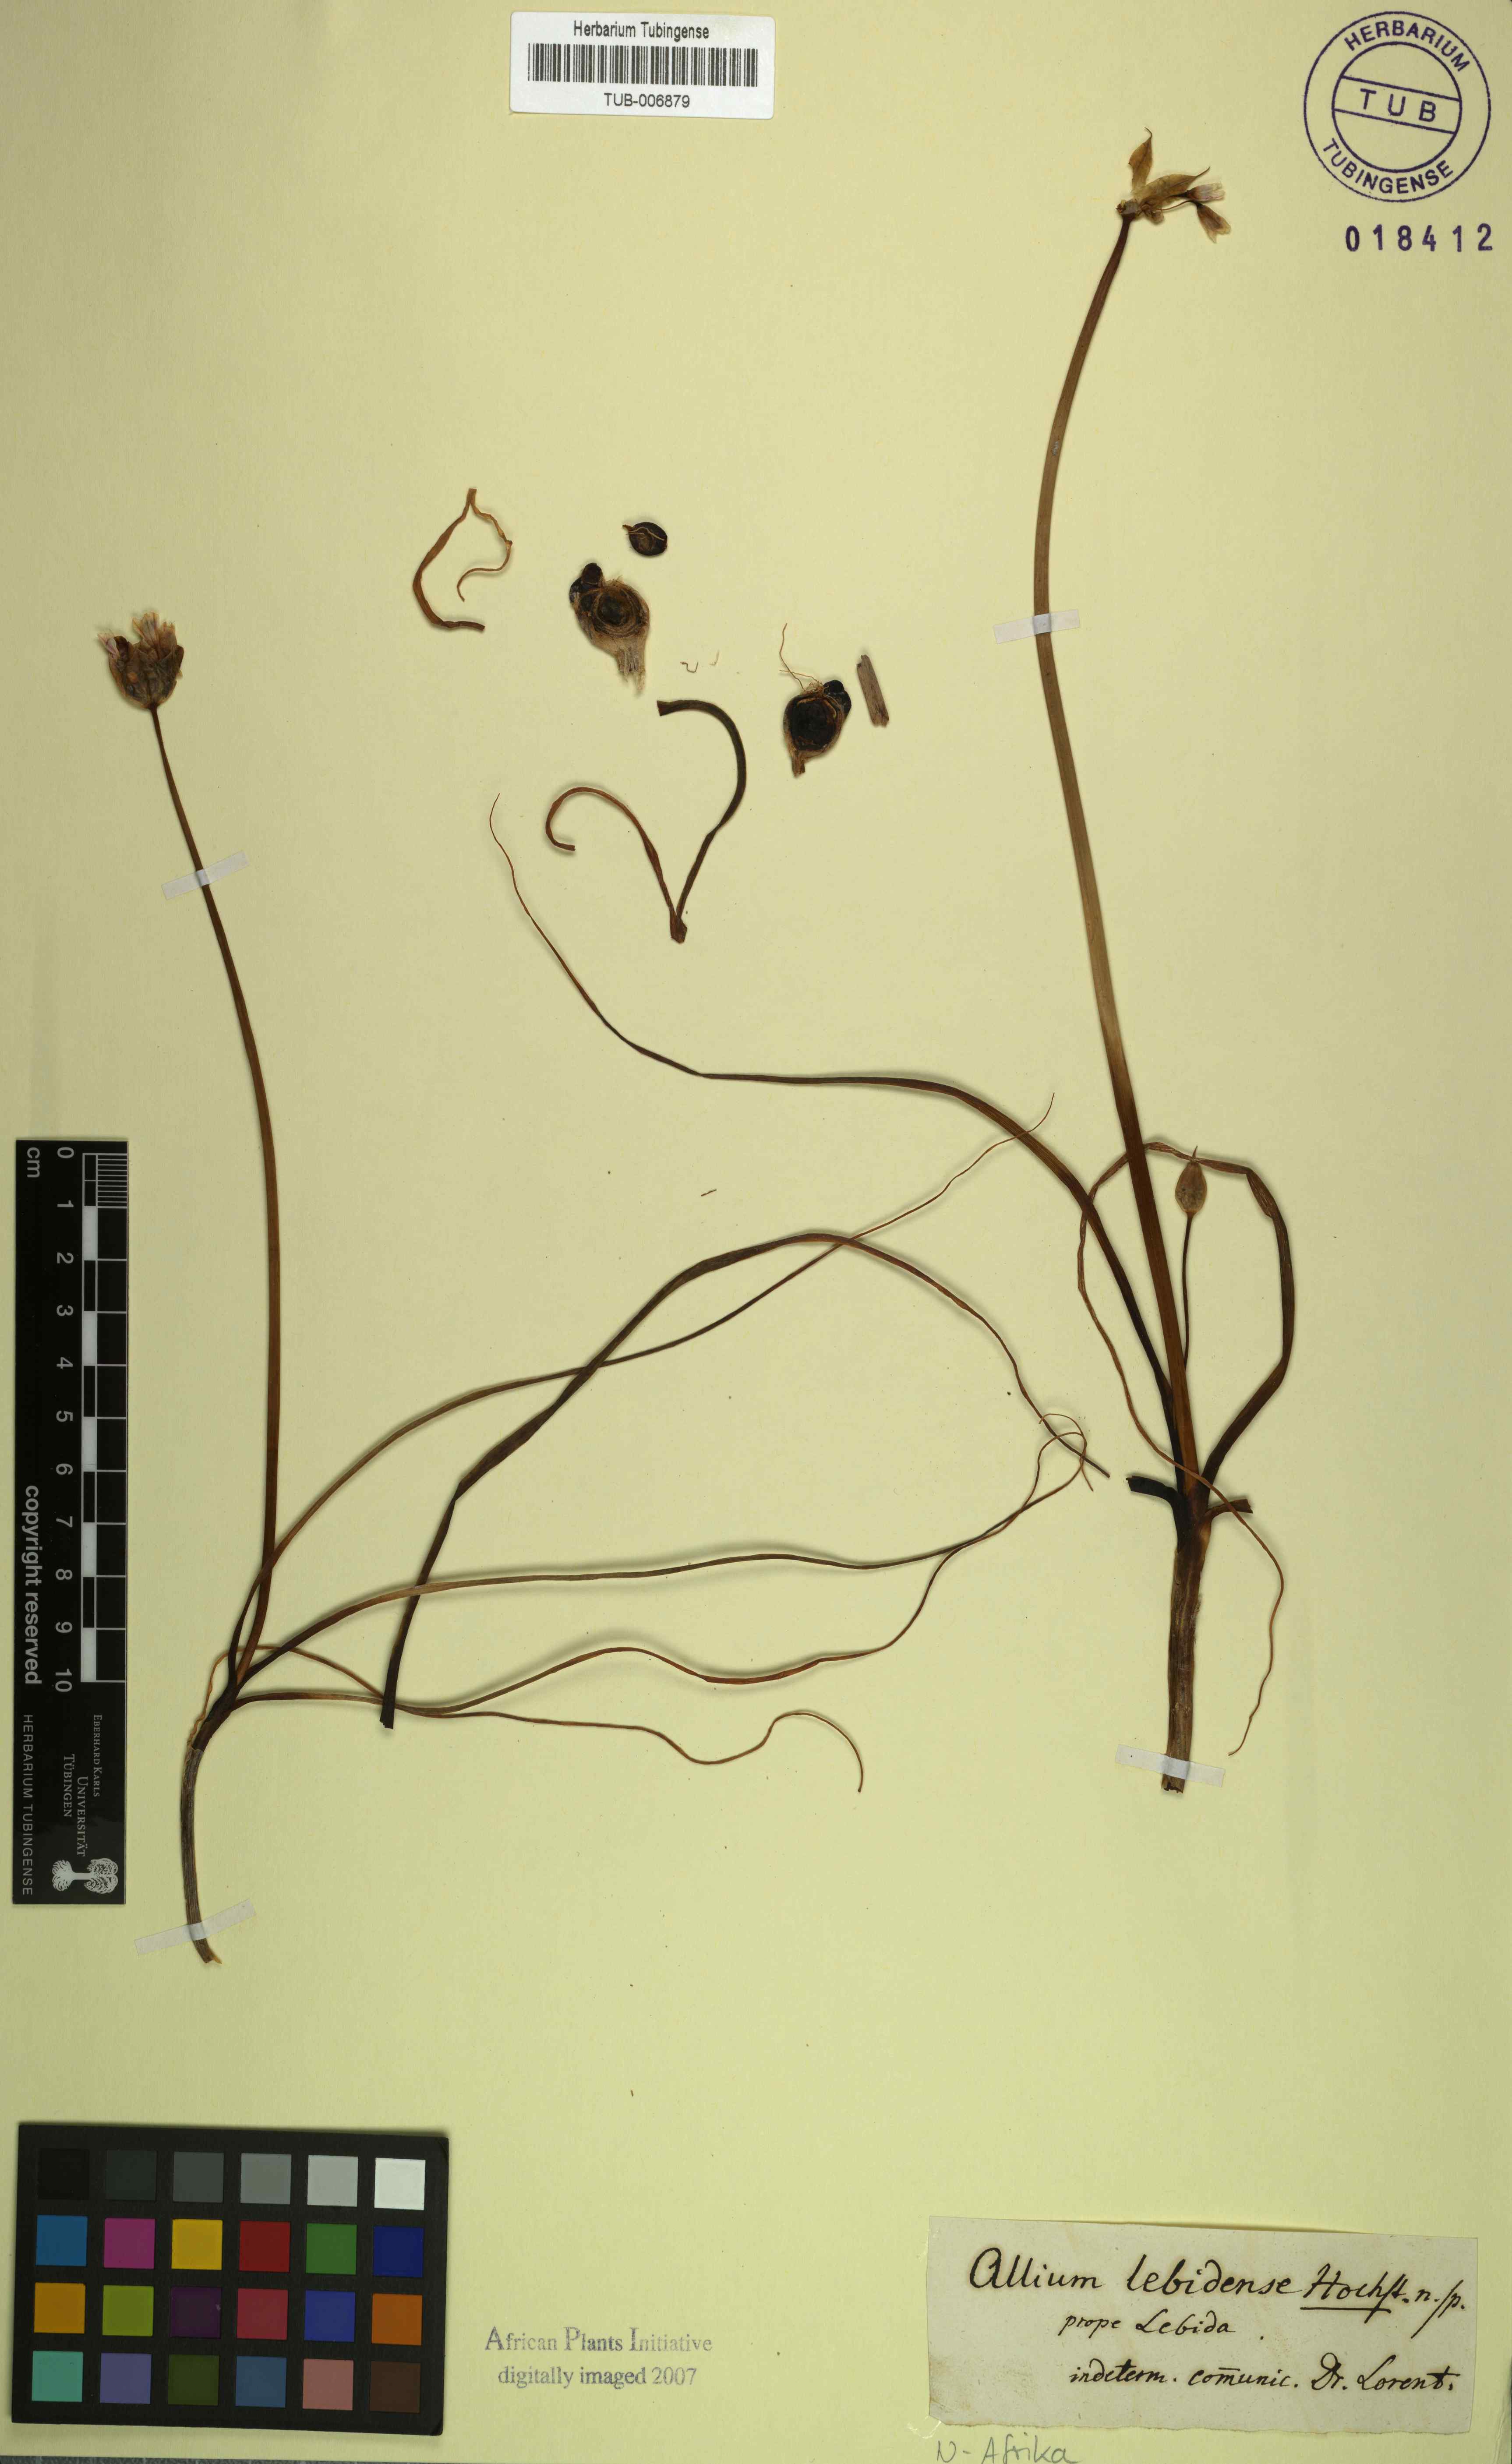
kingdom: Plantae
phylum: Tracheophyta
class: Liliopsida
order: Asparagales
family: Amaryllidaceae
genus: Allium
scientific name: Allium
